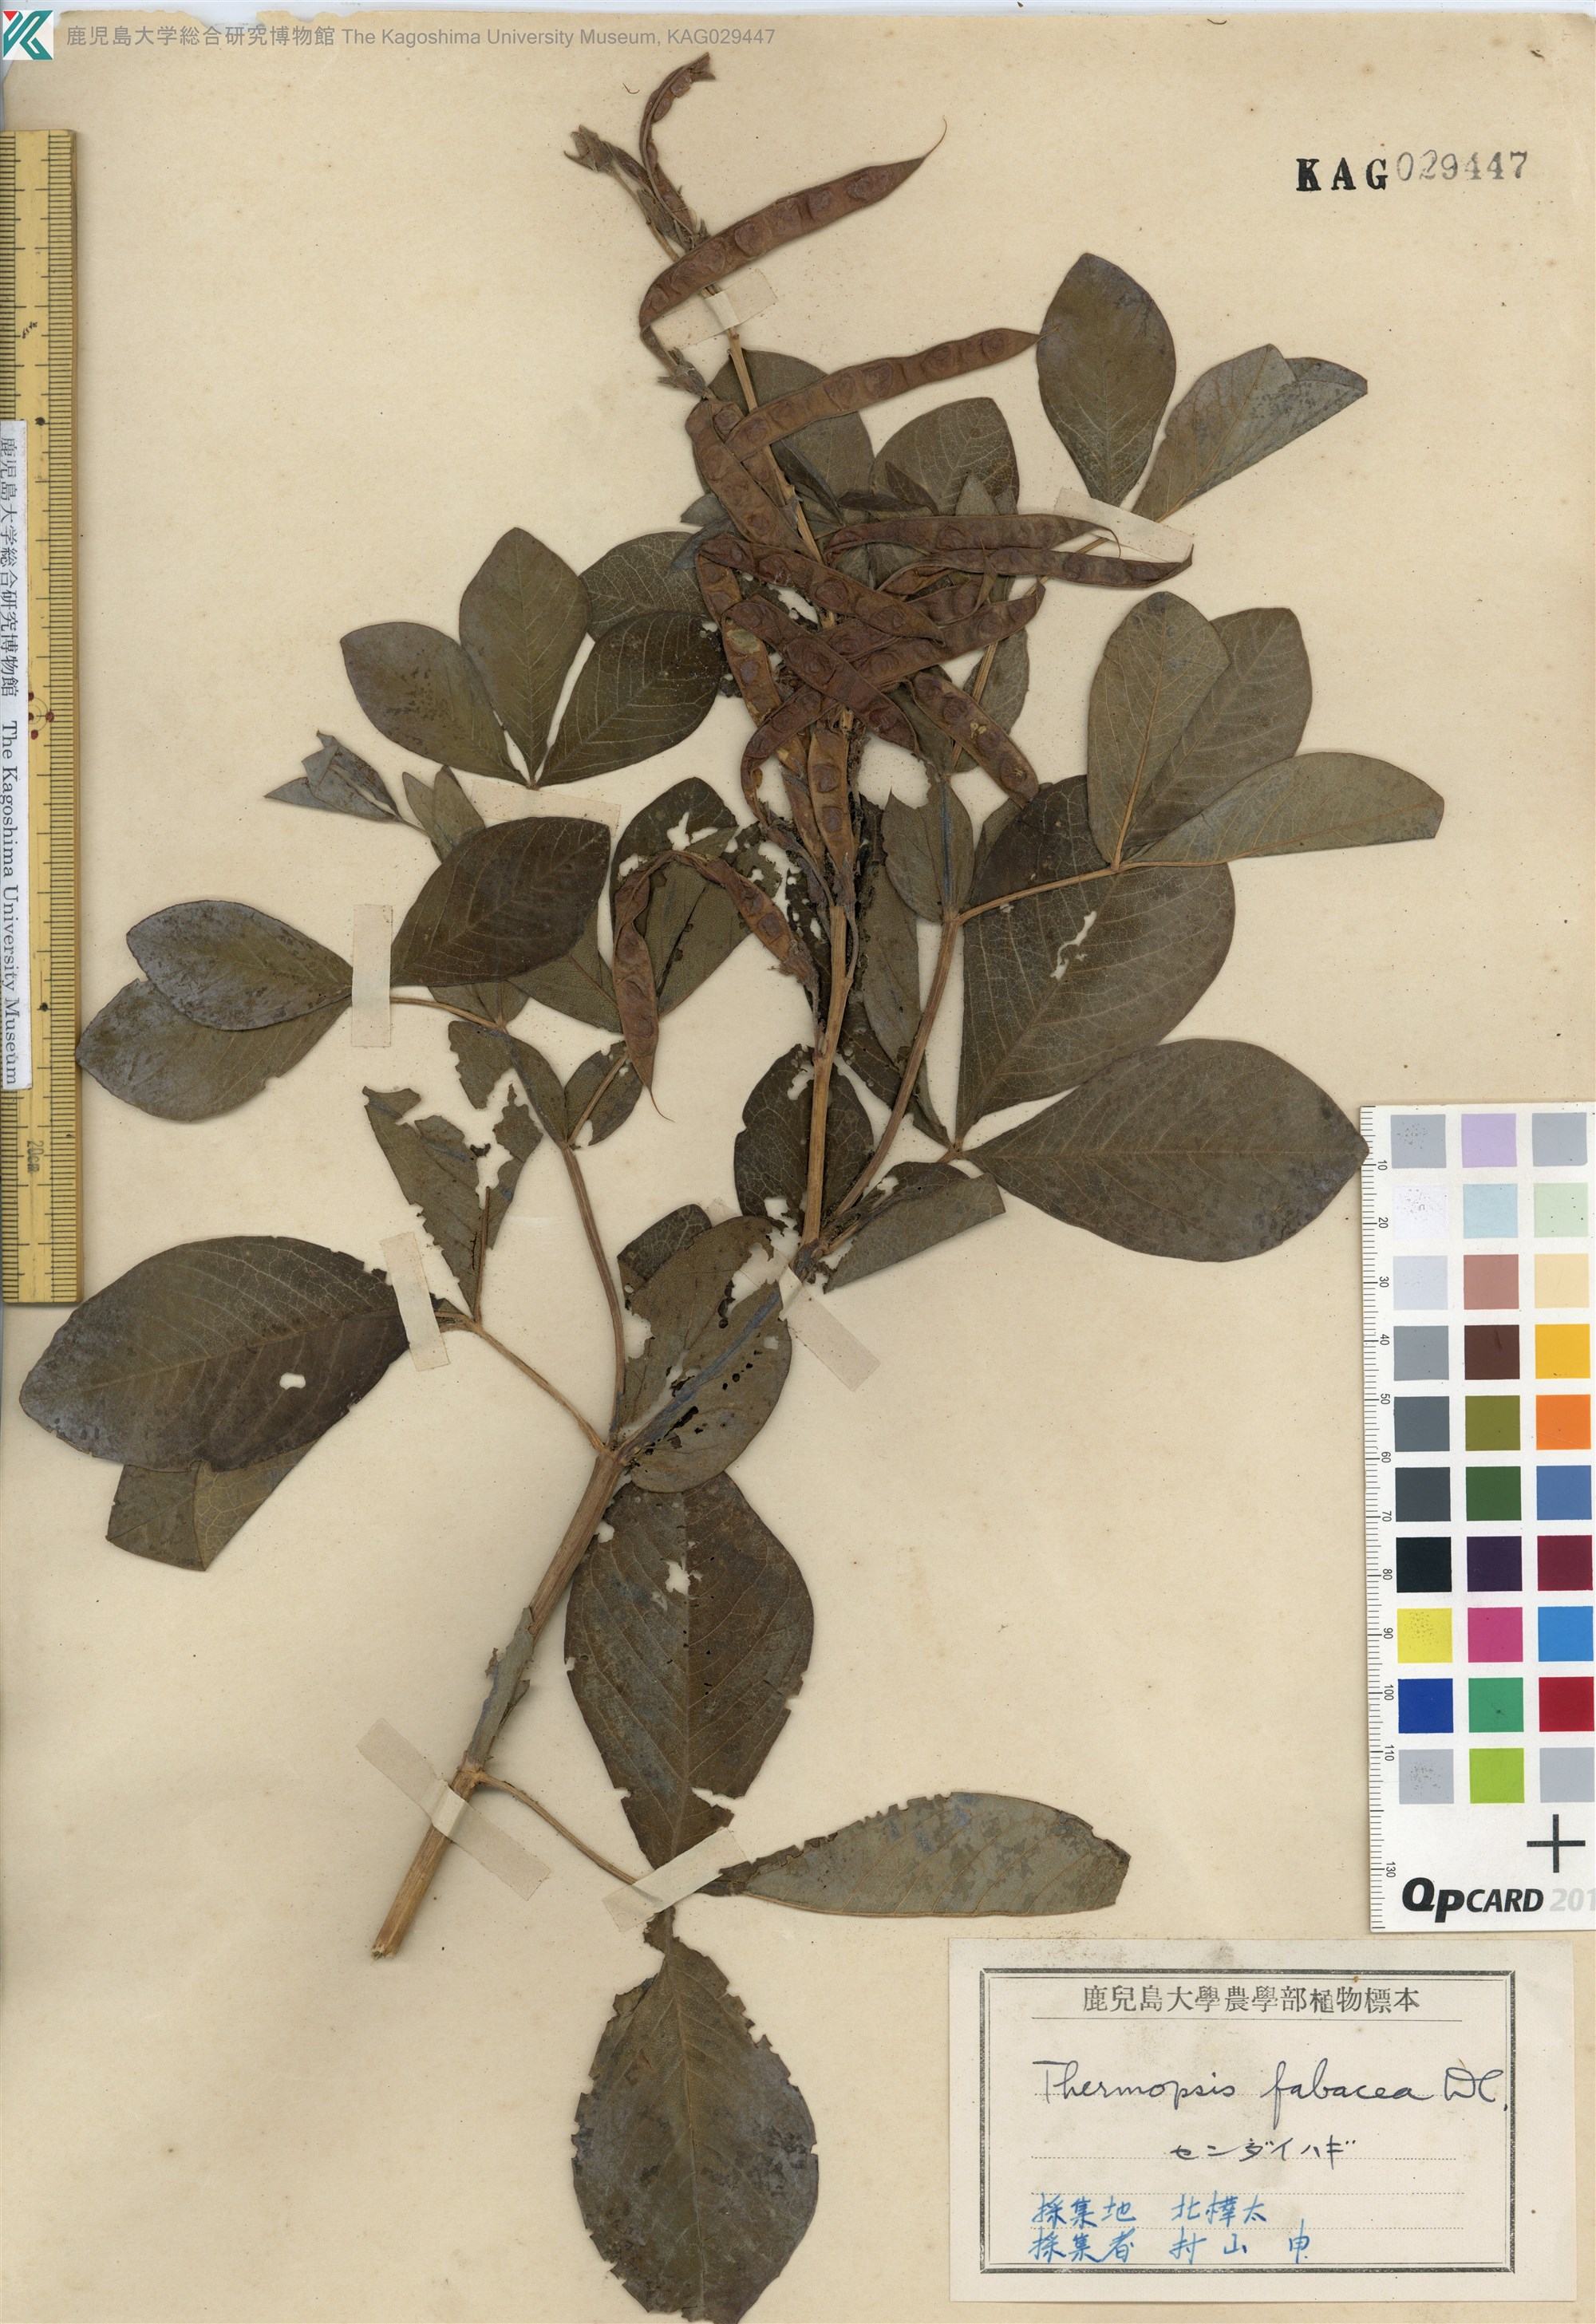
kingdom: Plantae
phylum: Tracheophyta
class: Magnoliopsida
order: Fabales
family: Fabaceae
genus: Thermopsis
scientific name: Thermopsis lanceolata
